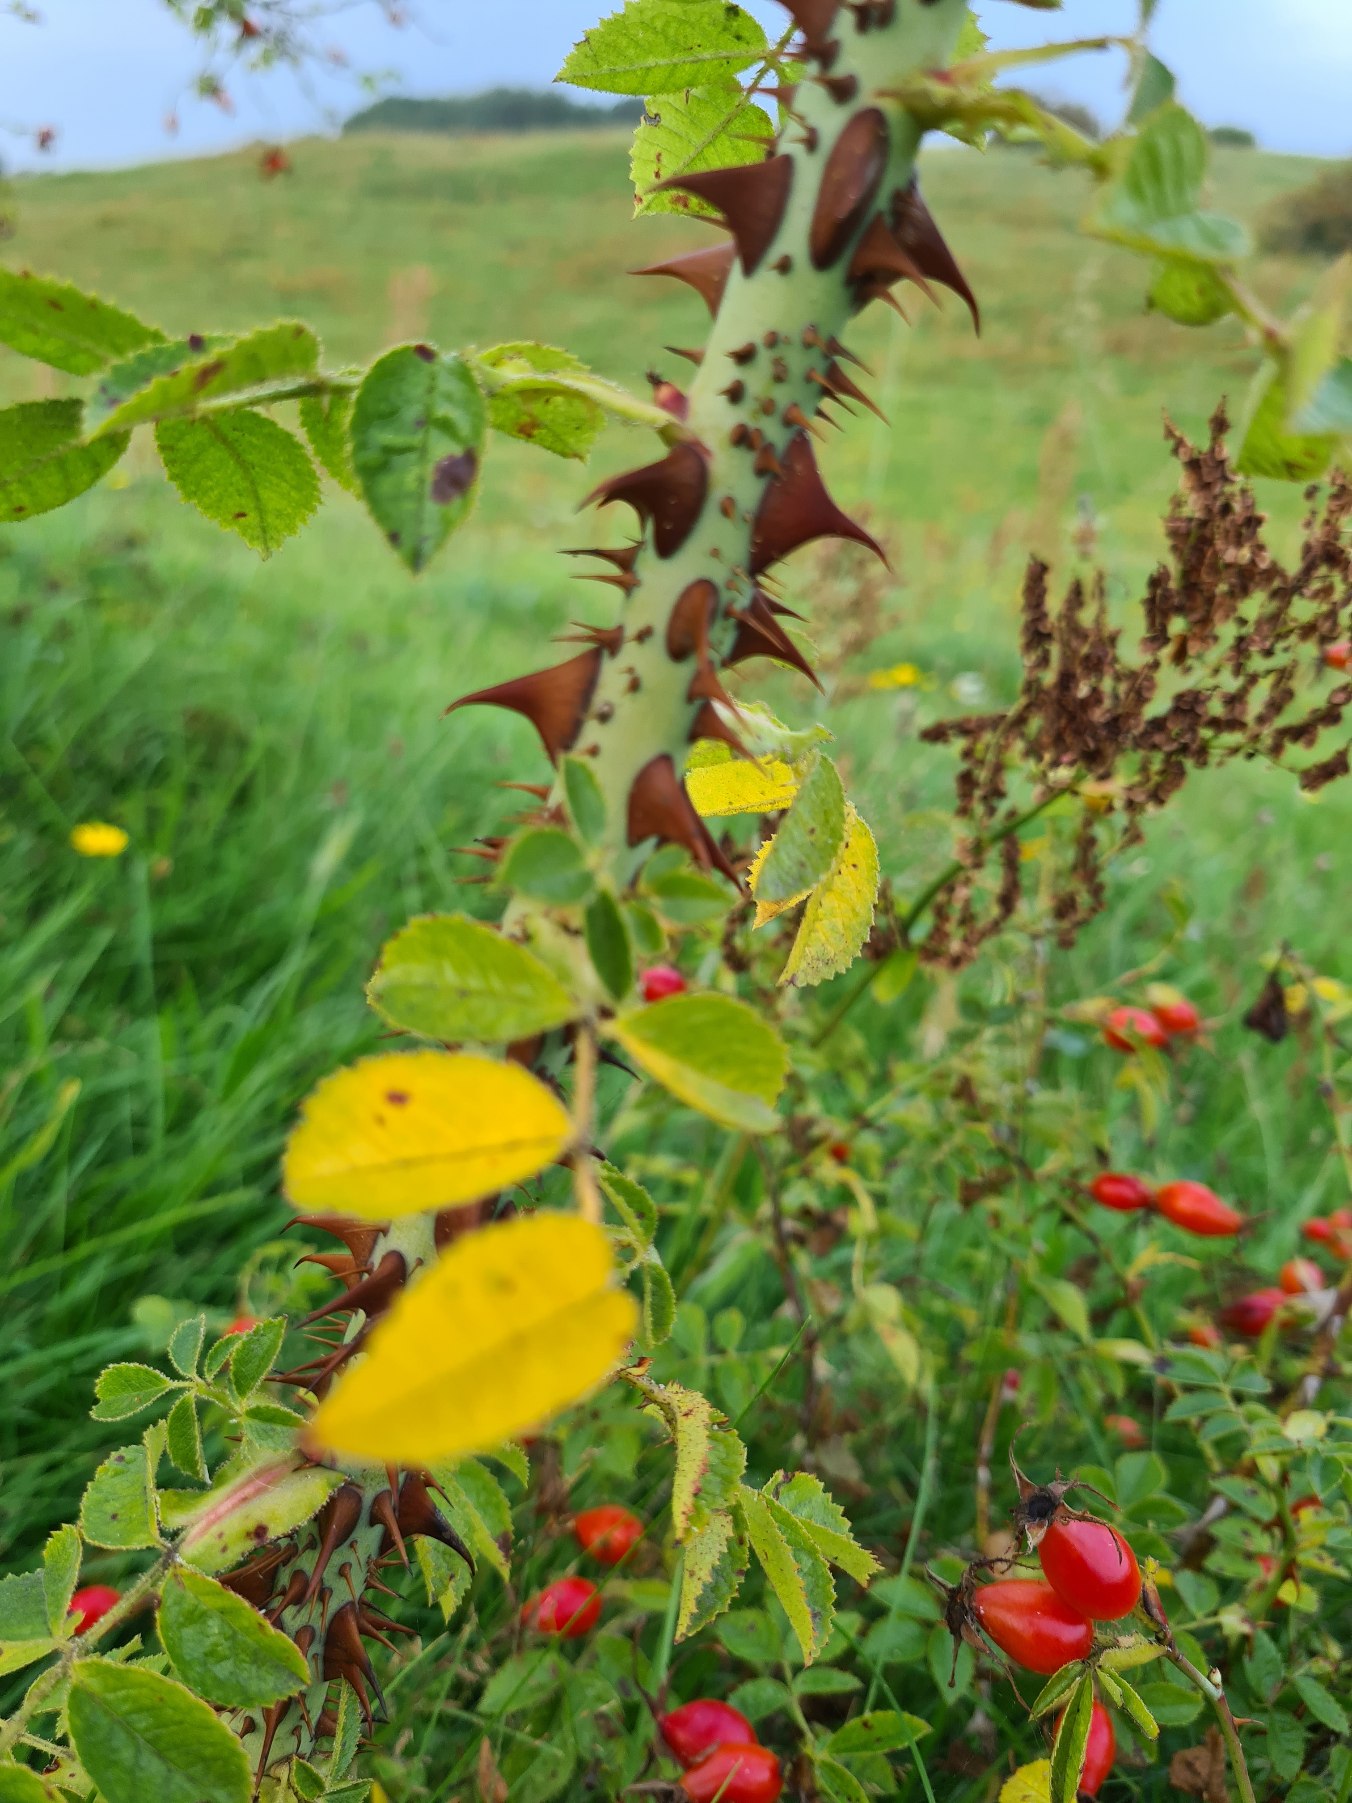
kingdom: Plantae
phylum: Tracheophyta
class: Magnoliopsida
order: Rosales
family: Rosaceae
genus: Rosa
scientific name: Rosa rubiginosa
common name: Æble-rose
